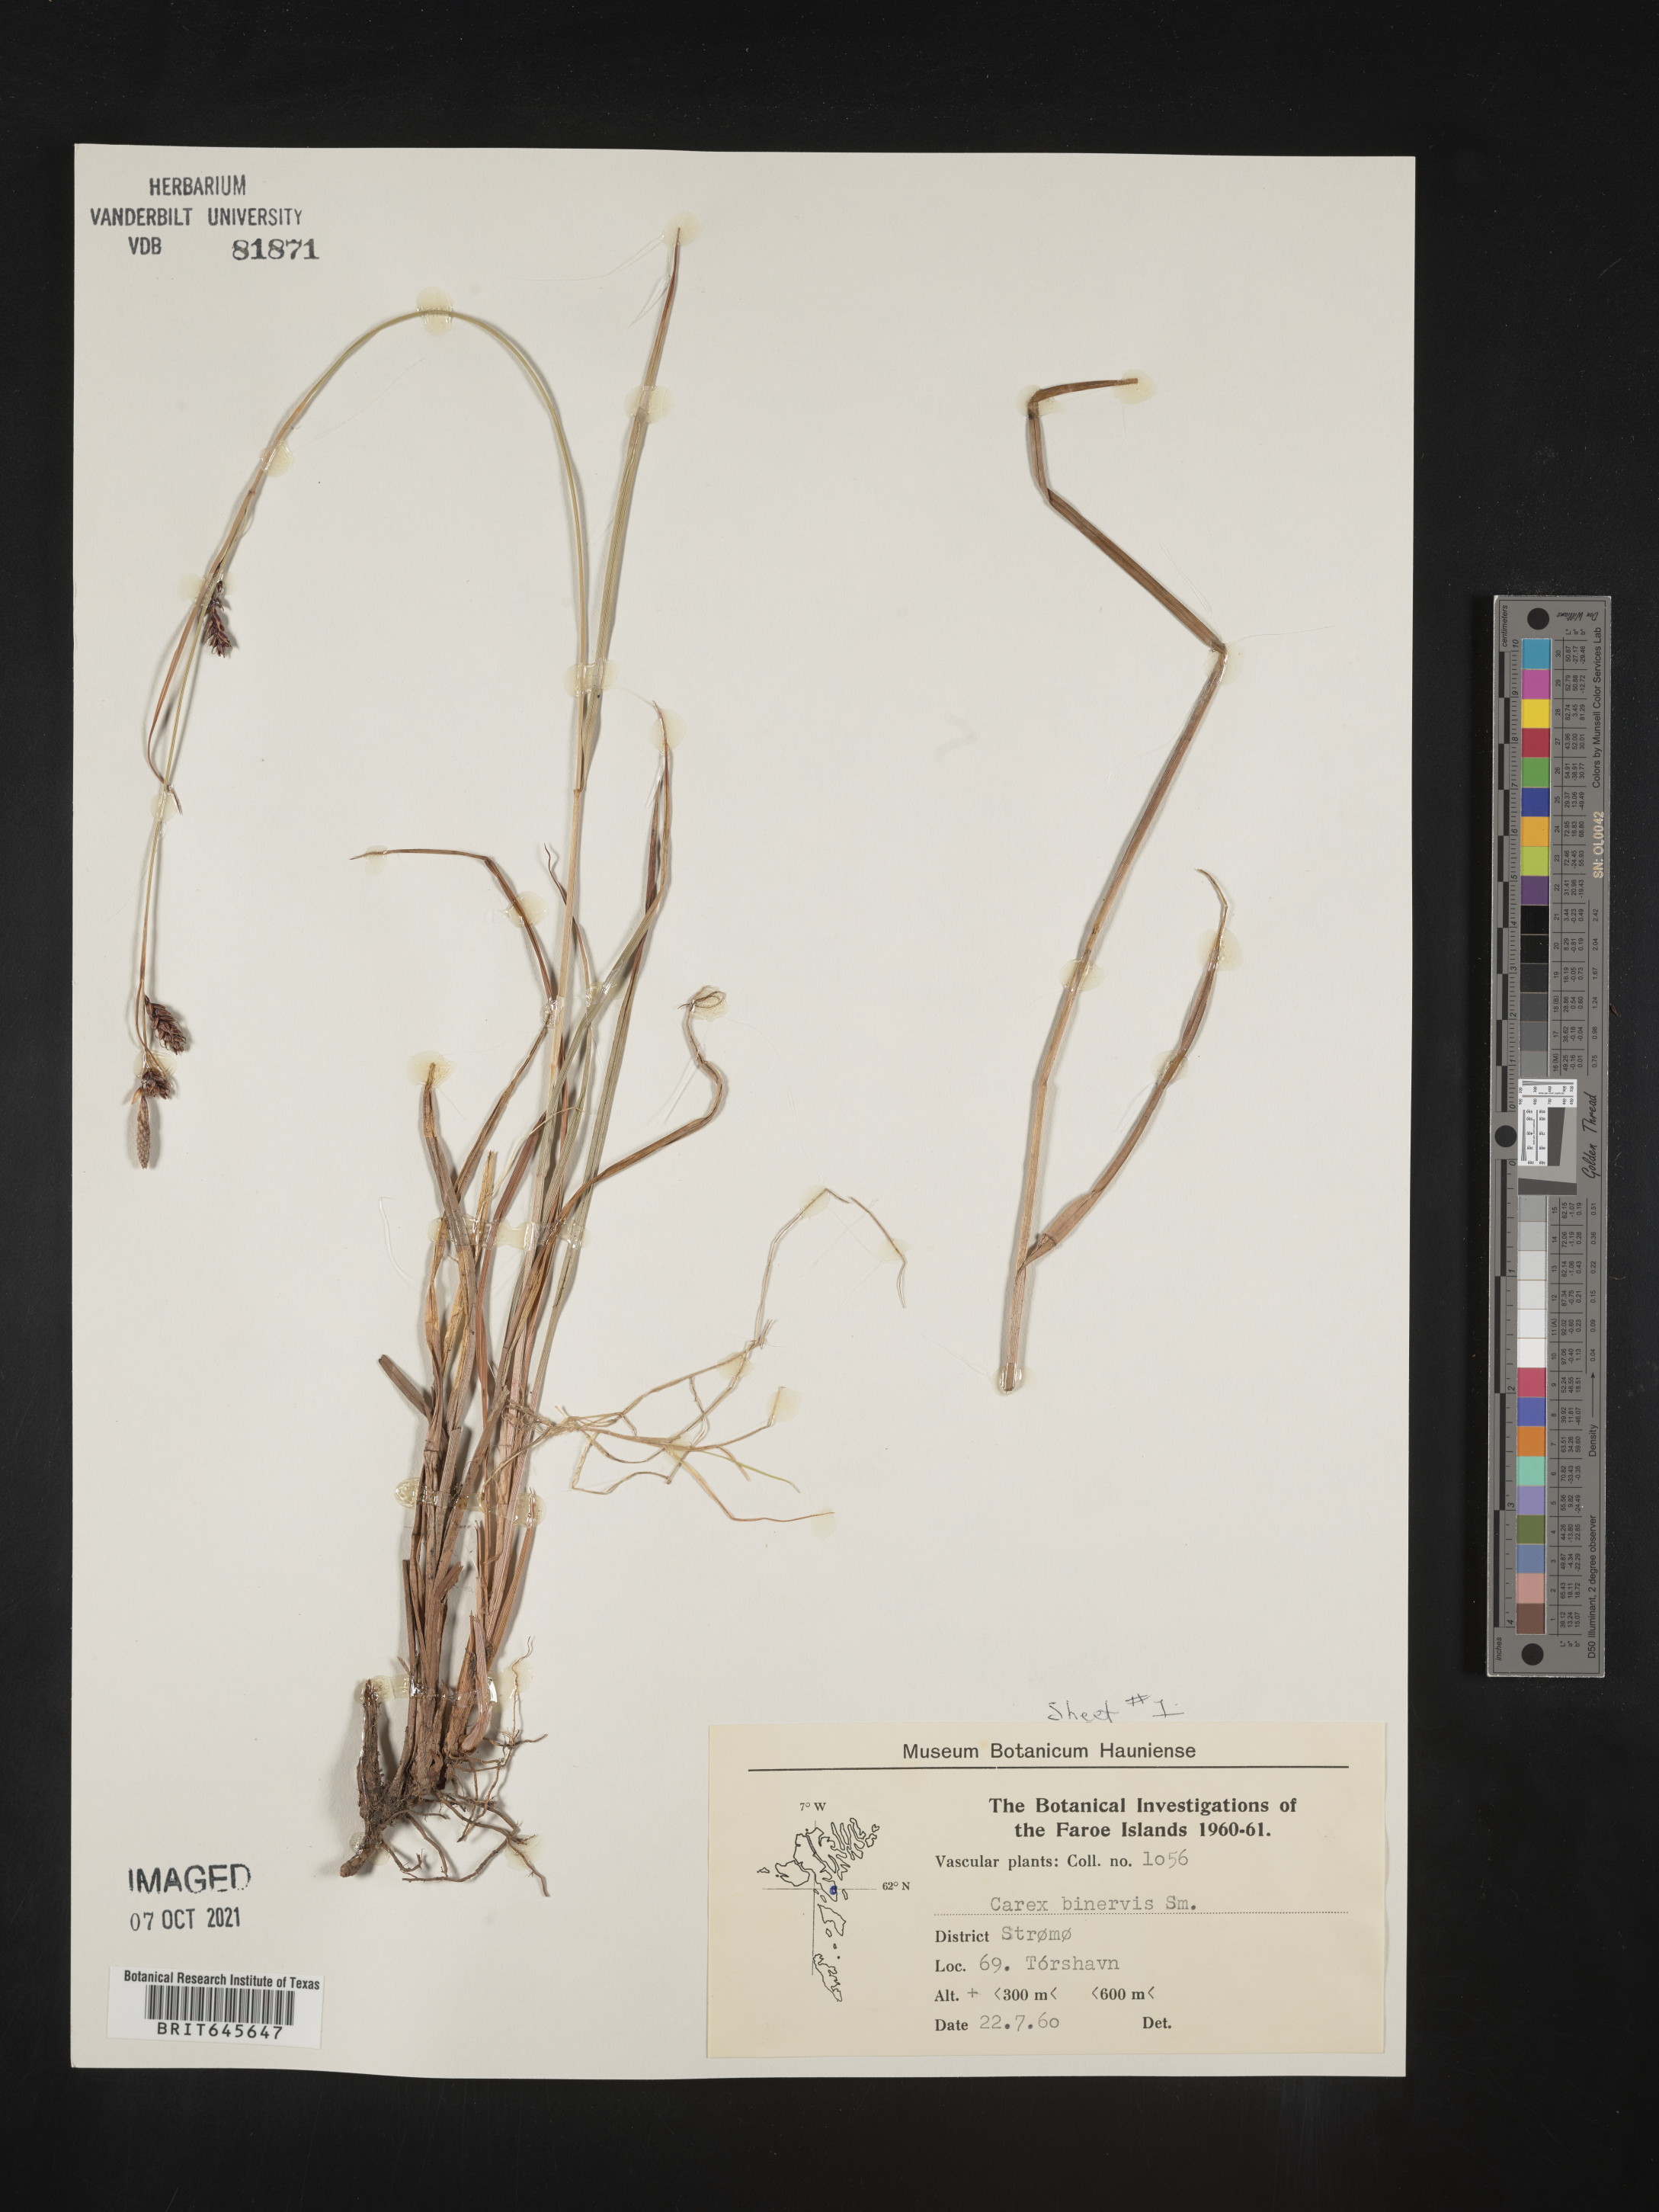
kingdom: Plantae
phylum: Tracheophyta
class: Liliopsida
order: Poales
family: Cyperaceae
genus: Carex
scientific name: Carex binervis
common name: Green-ribbed sedge
